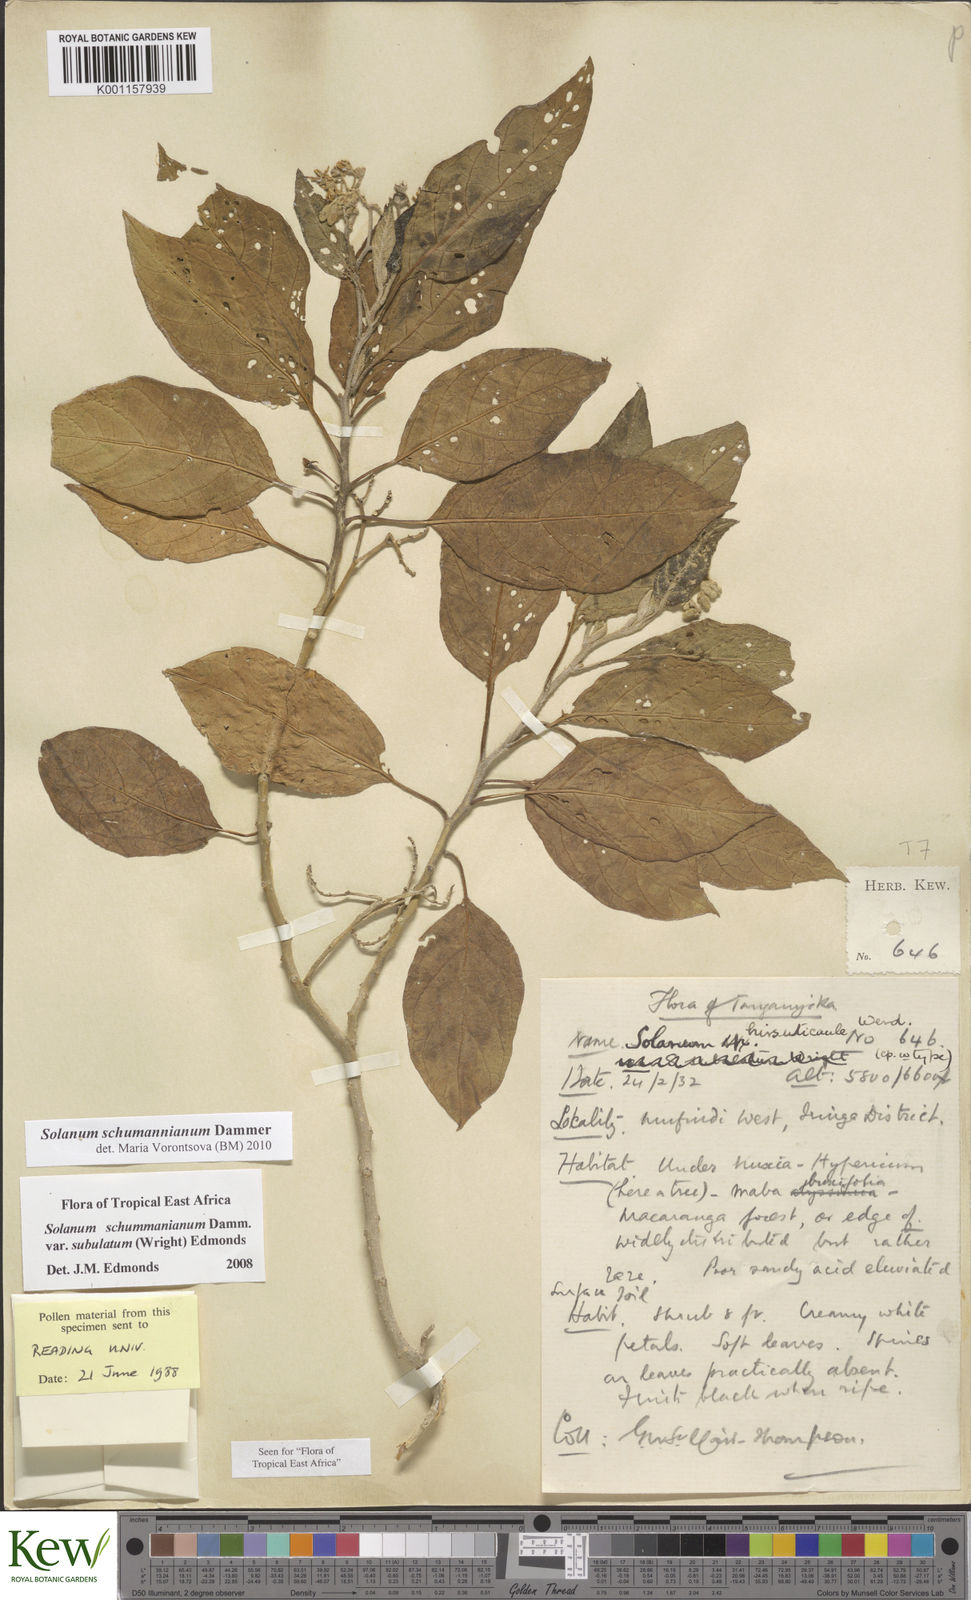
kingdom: Plantae
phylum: Tracheophyta
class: Magnoliopsida
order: Solanales
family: Solanaceae
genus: Solanum
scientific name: Solanum schumannianum
